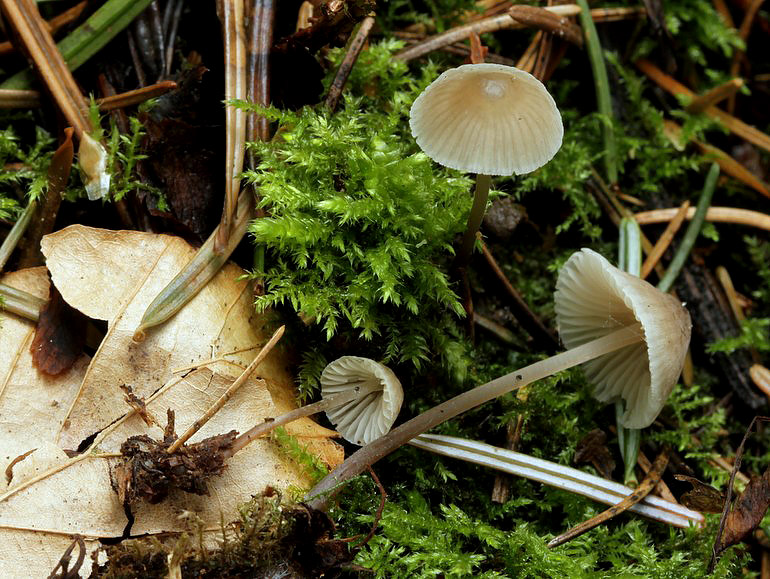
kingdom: Fungi
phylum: Basidiomycota
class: Agaricomycetes
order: Agaricales
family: Mycenaceae
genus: Mycena
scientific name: Mycena abramsii
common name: sommer-huesvamp
